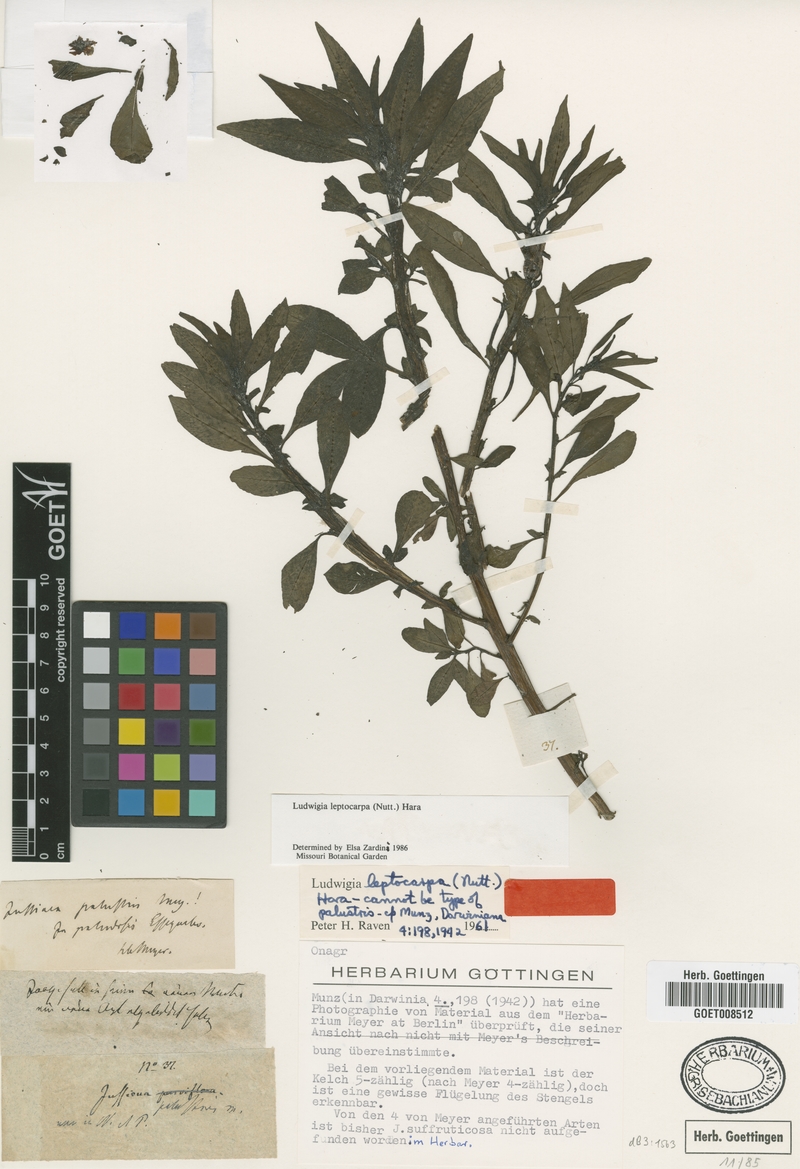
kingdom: Plantae
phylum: Tracheophyta
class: Magnoliopsida
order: Myrtales
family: Onagraceae
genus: Ludwigia
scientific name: Ludwigia leptocarpa
